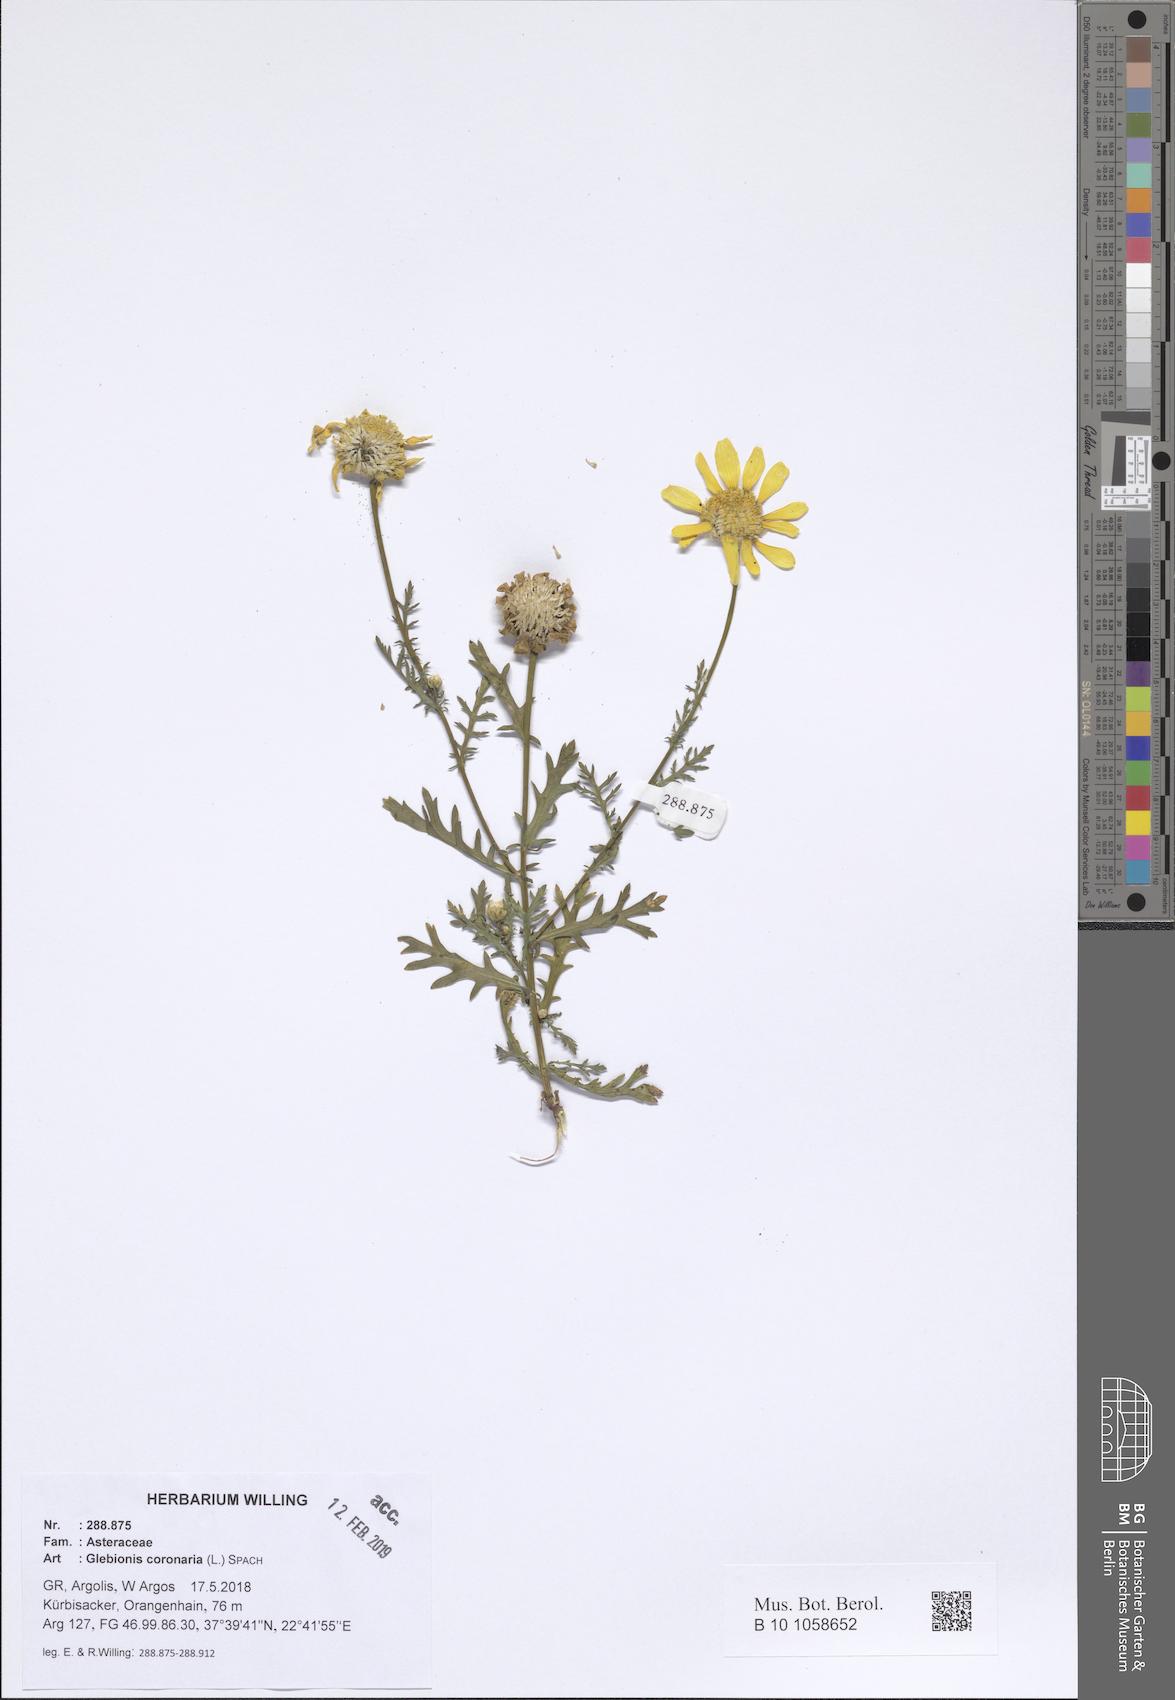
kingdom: Plantae
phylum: Tracheophyta
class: Magnoliopsida
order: Asterales
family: Asteraceae
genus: Glebionis
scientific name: Glebionis coronaria
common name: Crowndaisy
